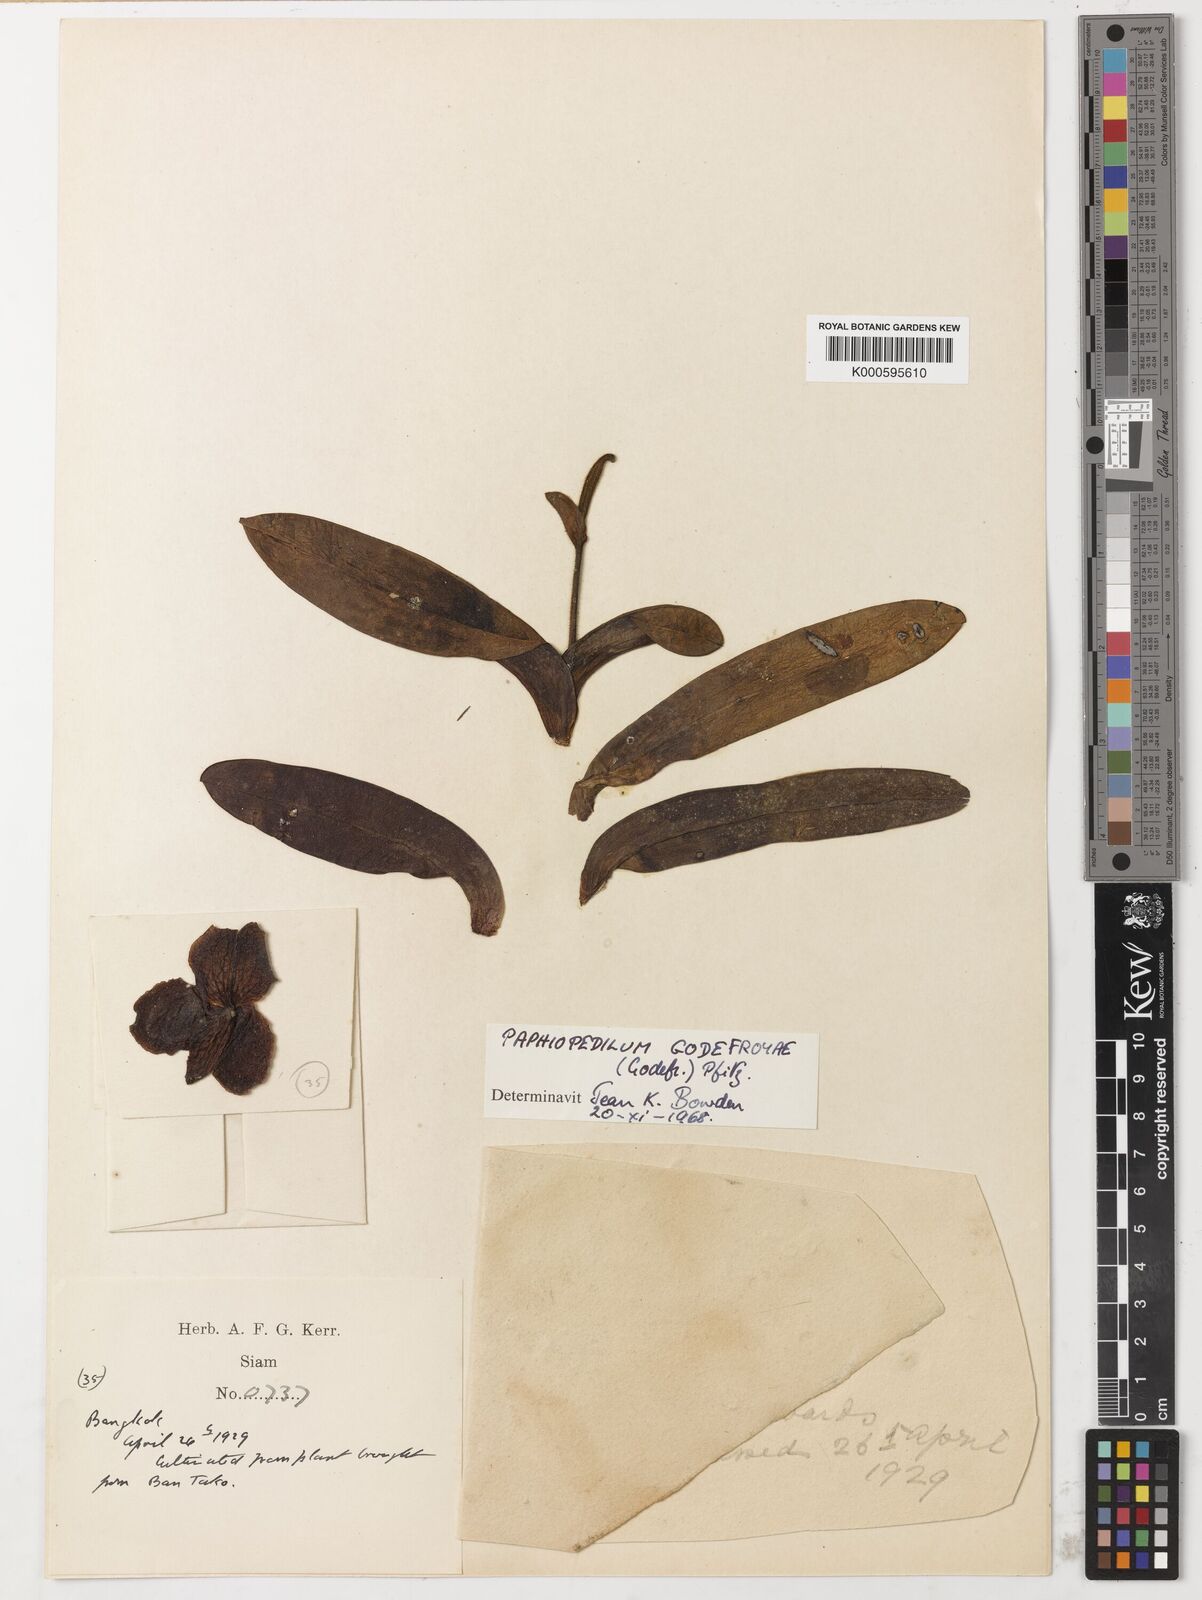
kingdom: Plantae
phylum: Tracheophyta
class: Liliopsida
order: Asparagales
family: Orchidaceae
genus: Paphiopedilum
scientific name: Paphiopedilum
